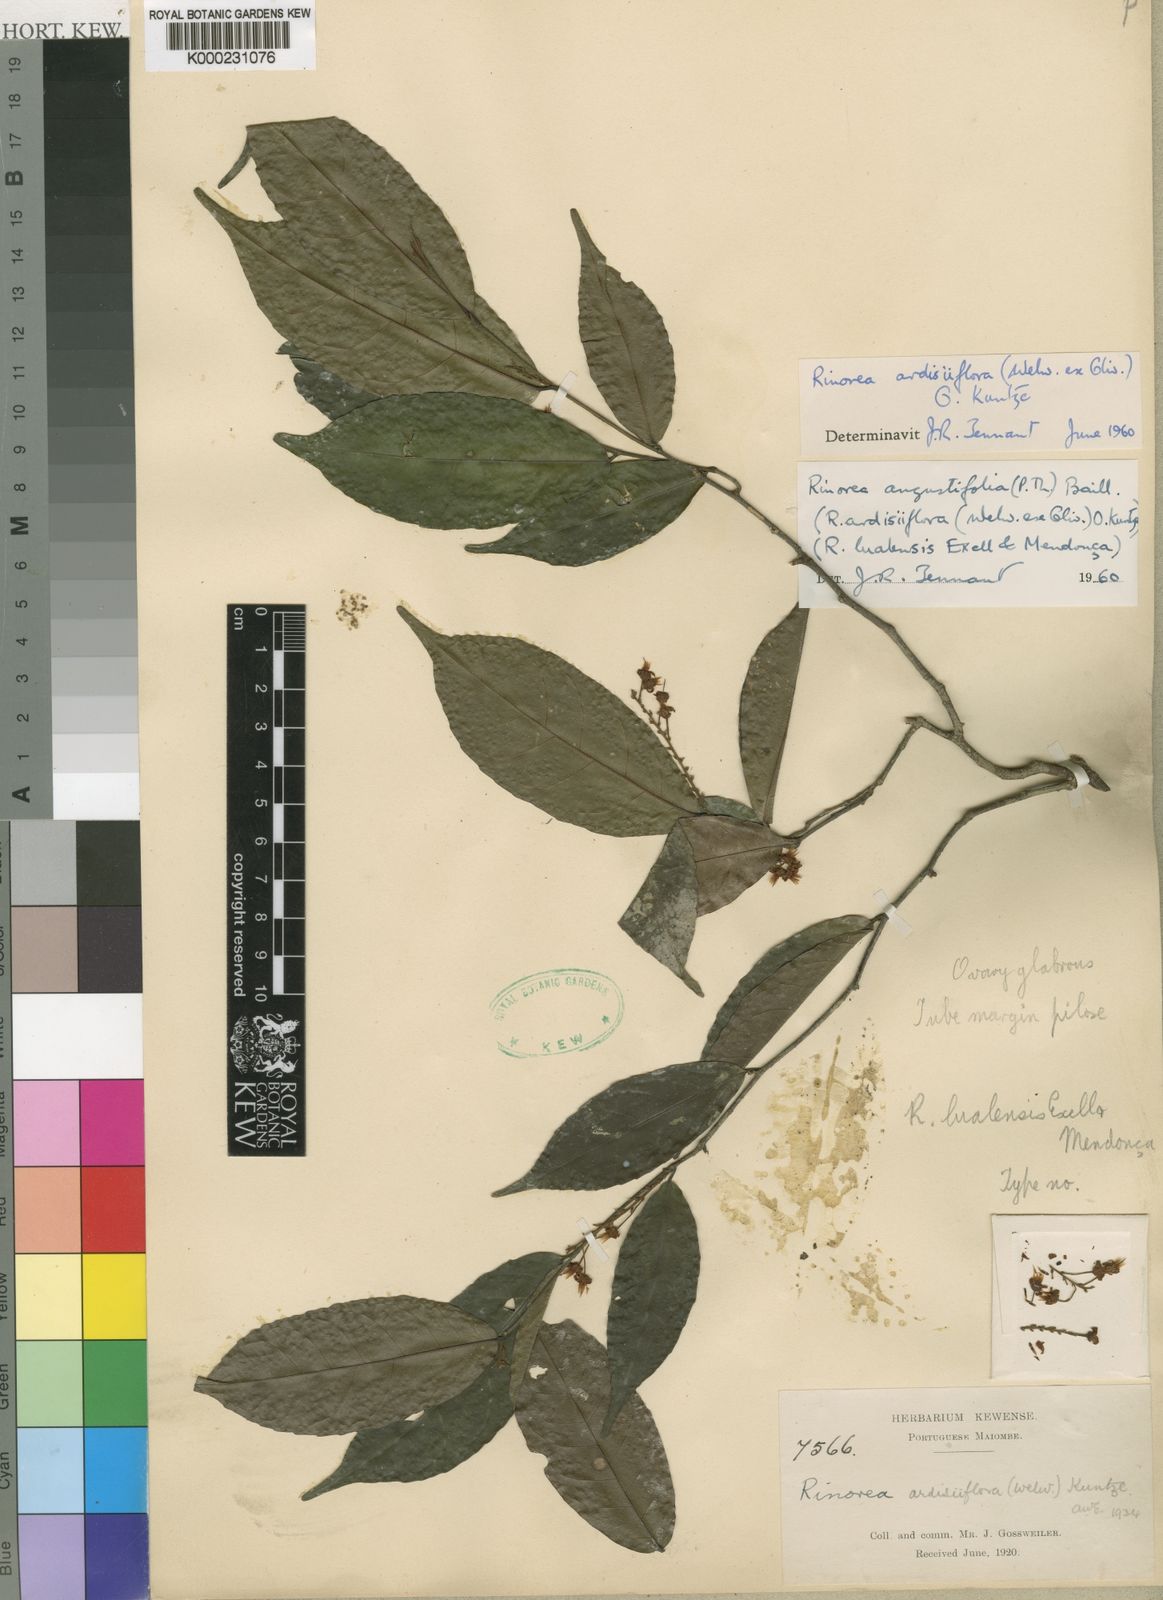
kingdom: Plantae
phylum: Tracheophyta
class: Magnoliopsida
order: Malpighiales
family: Violaceae
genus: Rinorea
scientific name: Rinorea
